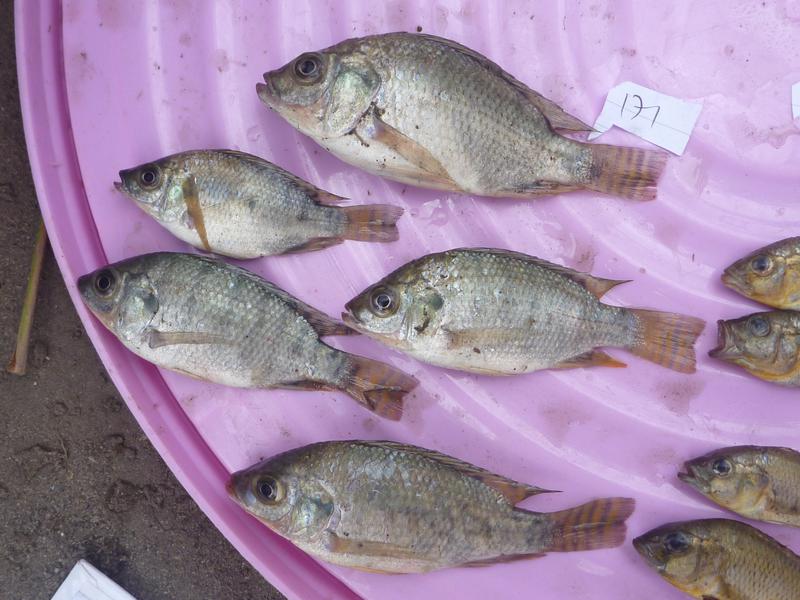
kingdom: Animalia
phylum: Chordata
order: Perciformes
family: Cichlidae
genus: Oreochromis
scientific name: Oreochromis niloticus
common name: Nile tilapia
